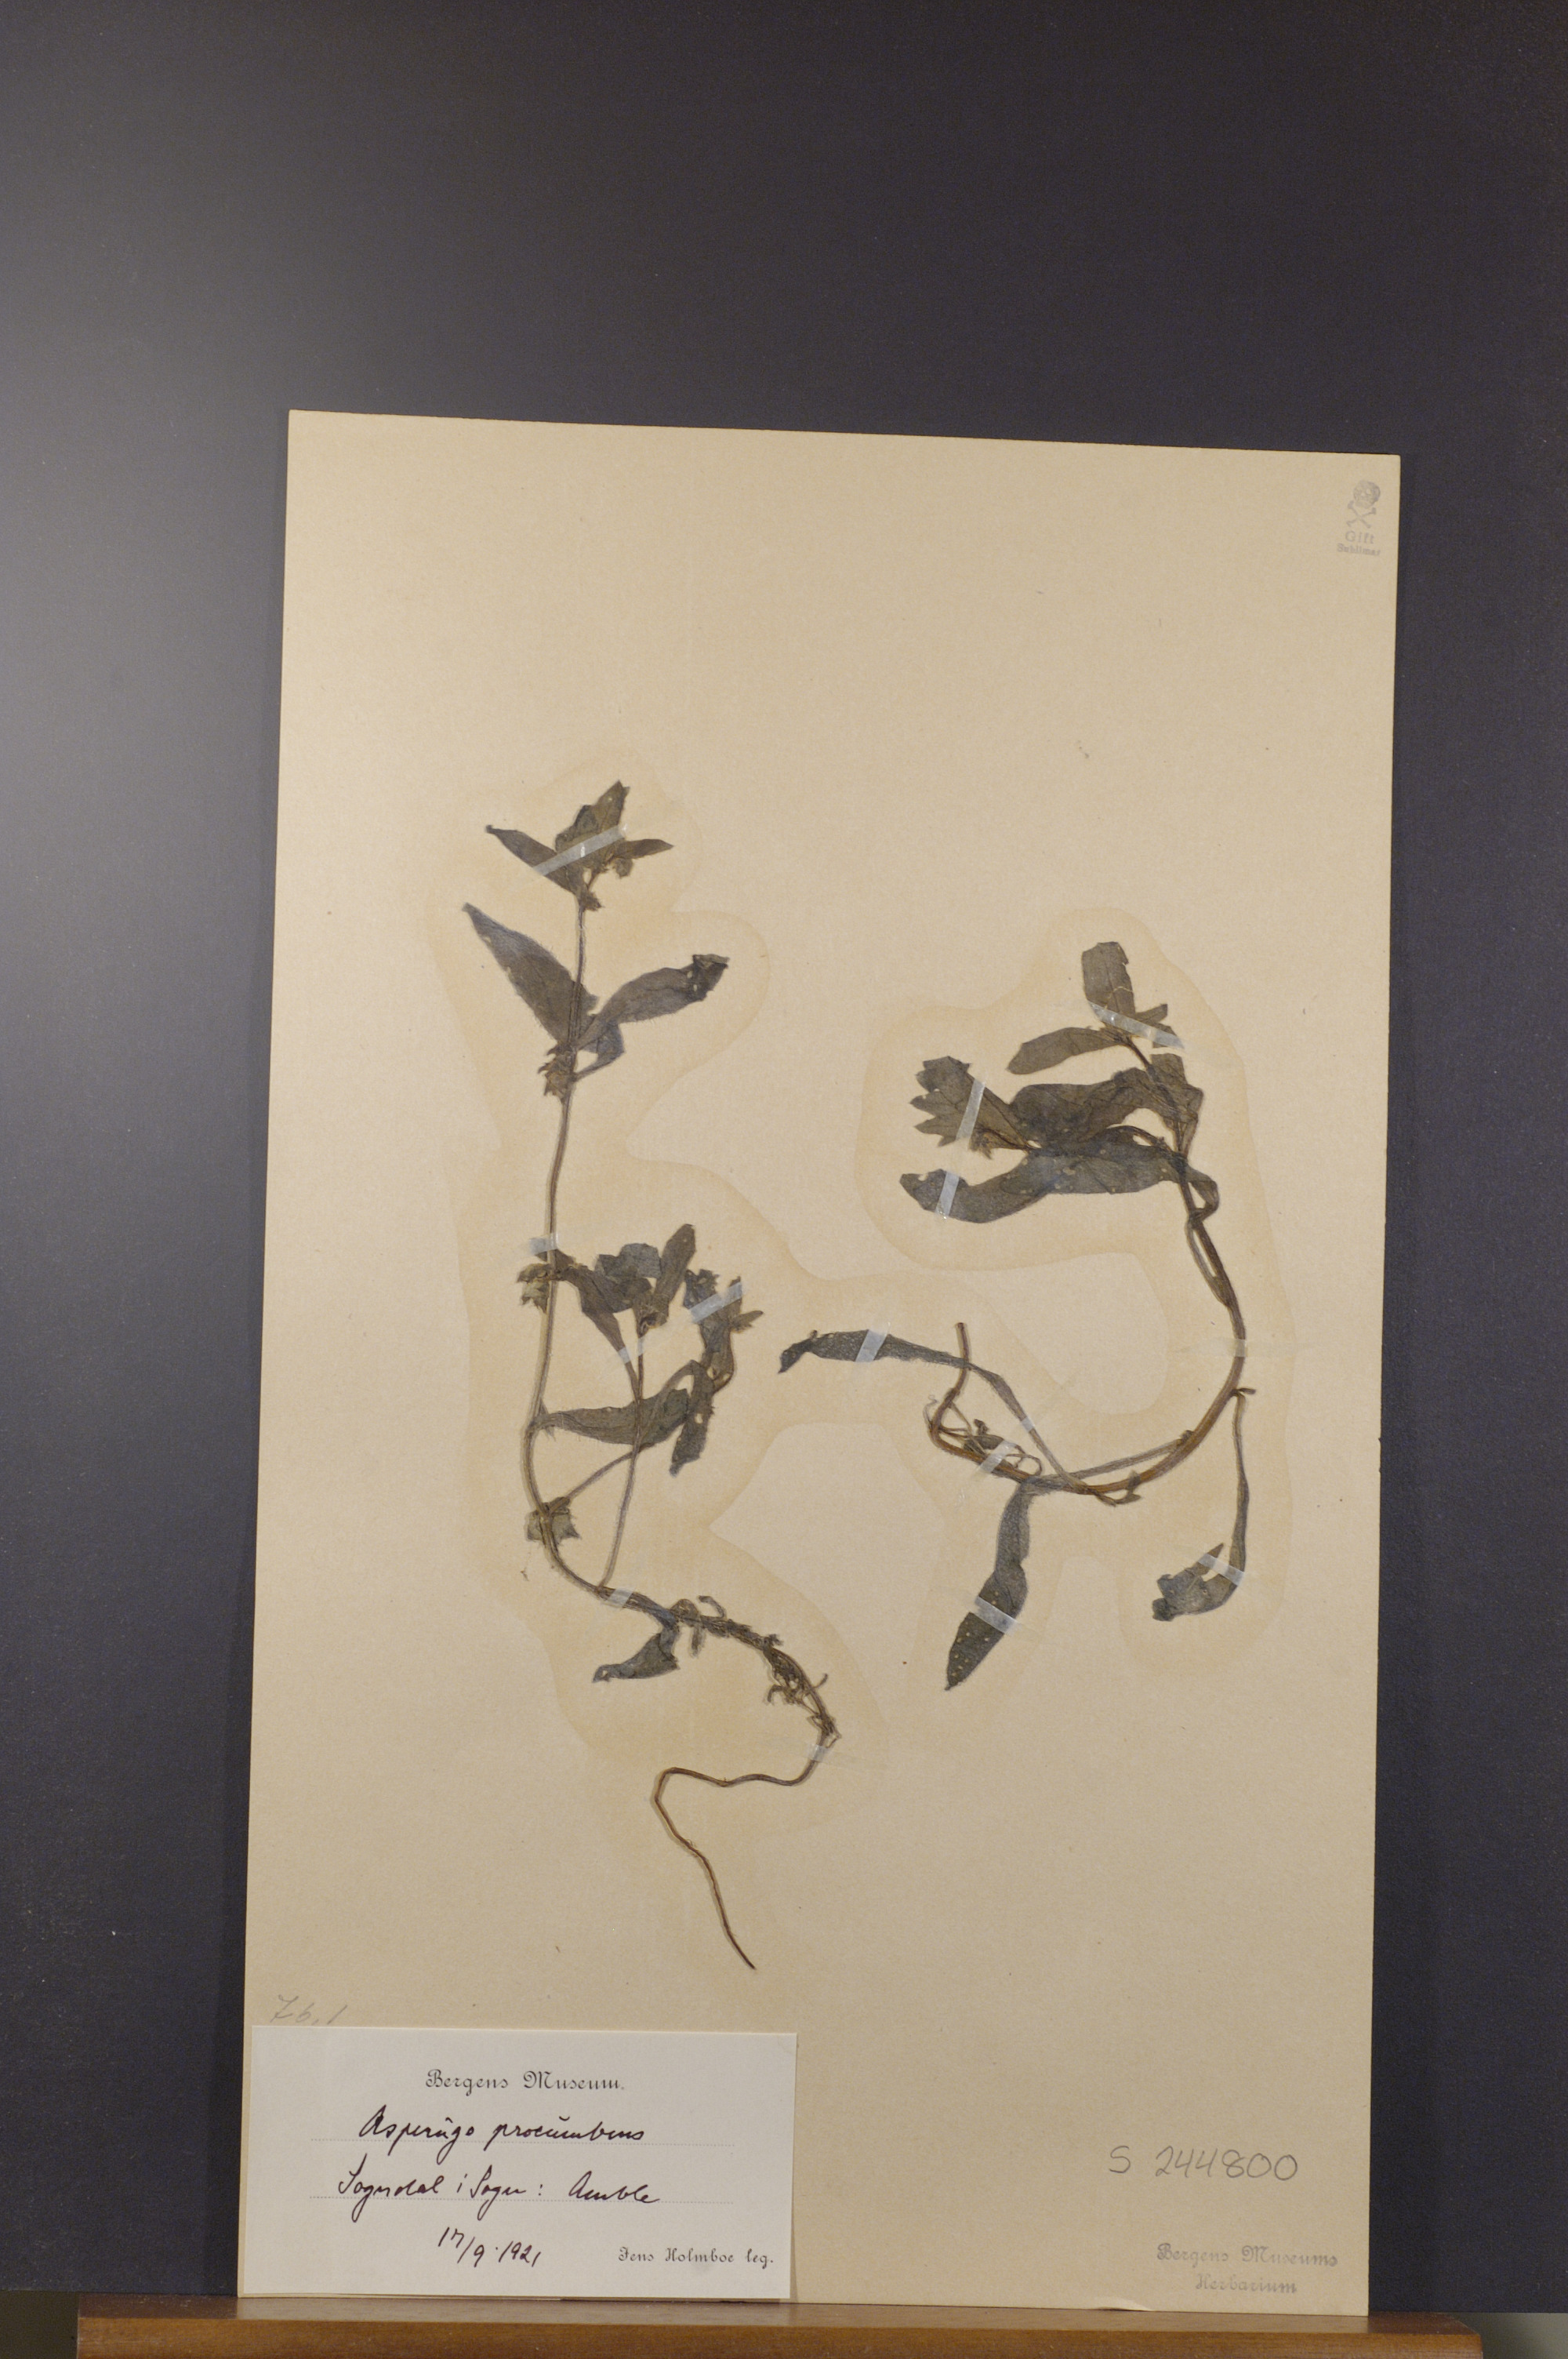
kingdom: Plantae
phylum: Tracheophyta
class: Magnoliopsida
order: Boraginales
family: Boraginaceae
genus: Asperugo
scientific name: Asperugo procumbens
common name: Madwort
